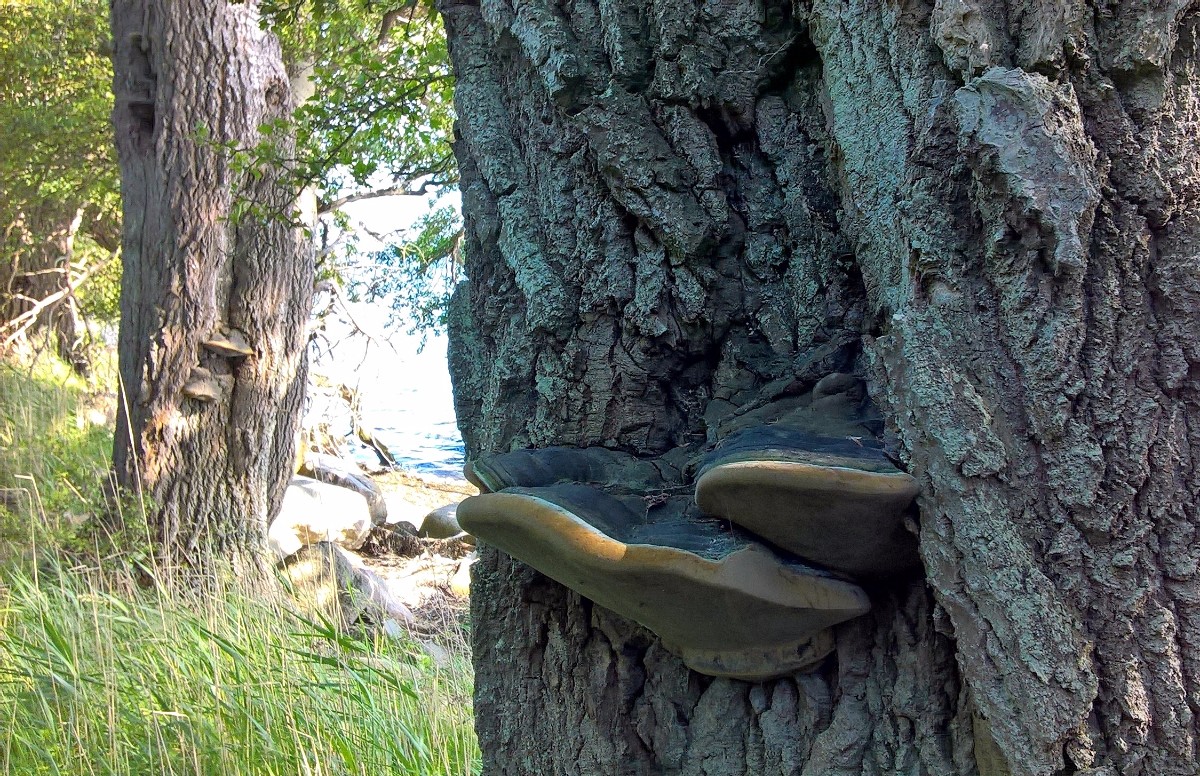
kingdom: Fungi
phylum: Basidiomycota
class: Agaricomycetes
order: Hymenochaetales
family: Hymenochaetaceae
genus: Phellinus
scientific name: Phellinus populicola
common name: poppel-ildporesvamp
